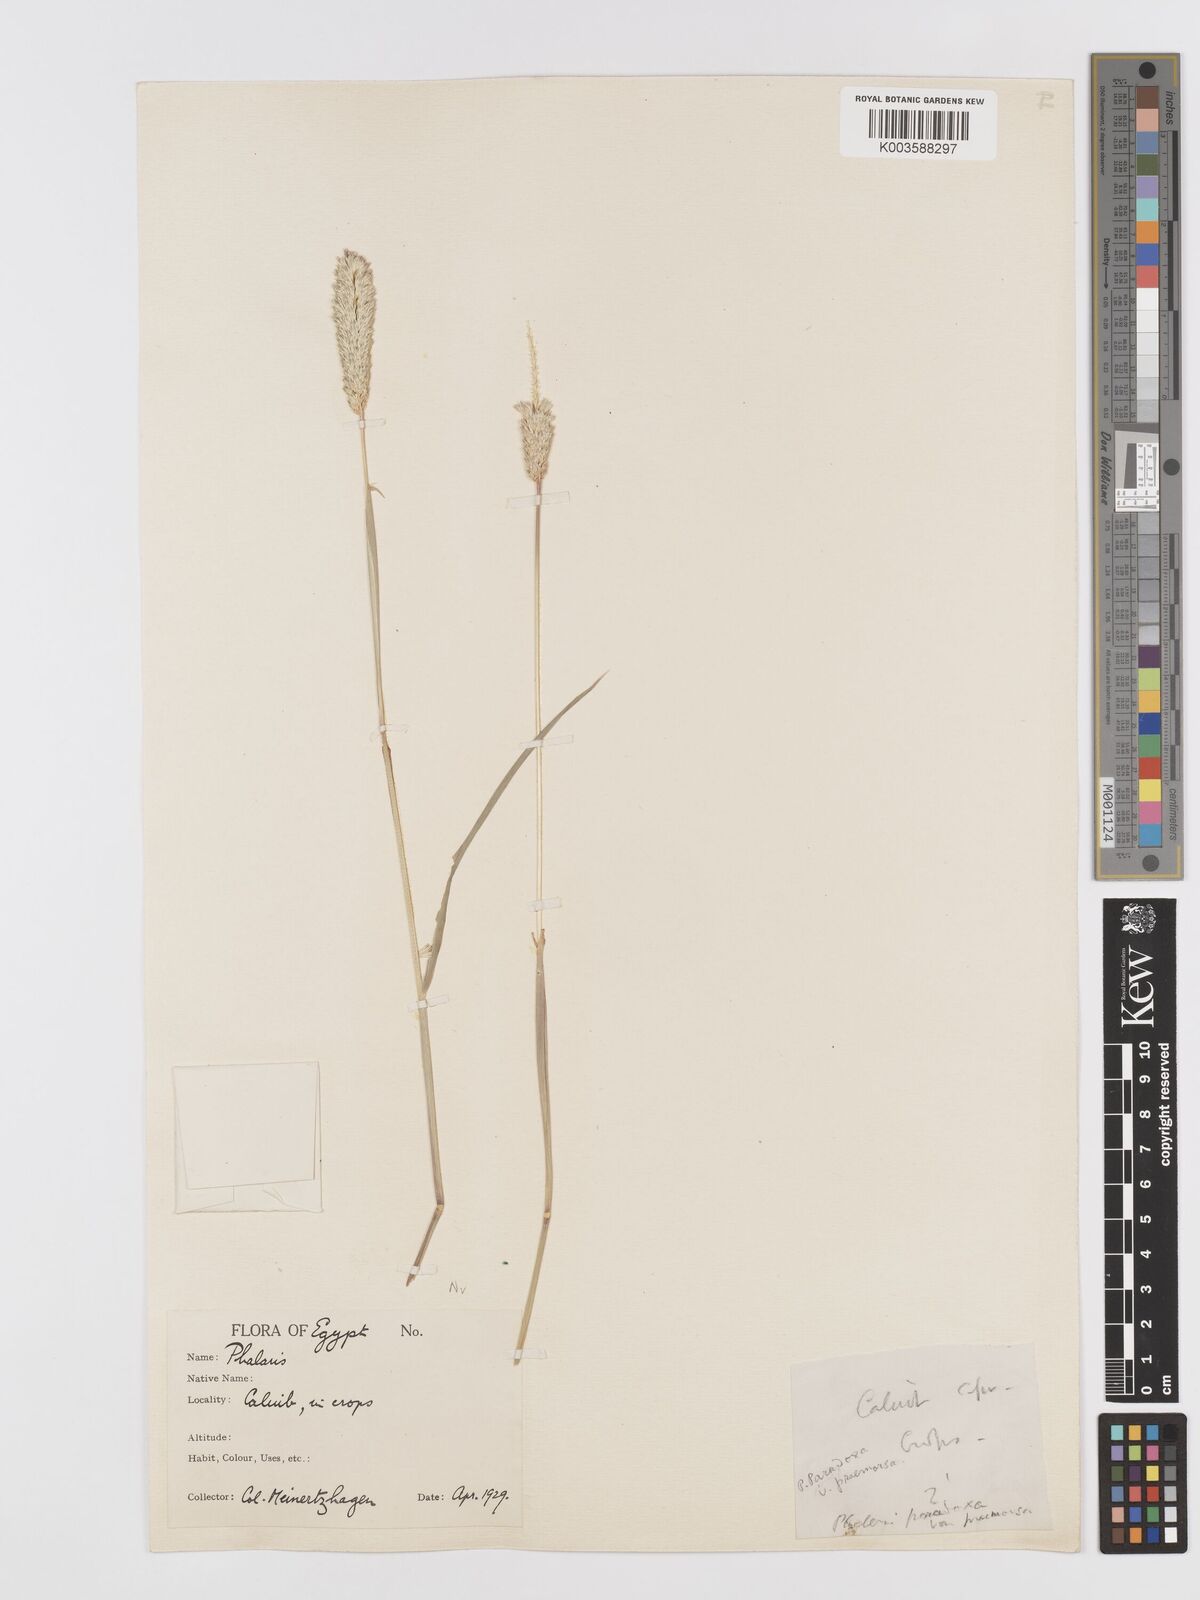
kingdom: Plantae
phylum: Tracheophyta
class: Liliopsida
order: Poales
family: Poaceae
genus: Phalaris
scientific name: Phalaris paradoxa
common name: Awned canary-grass
